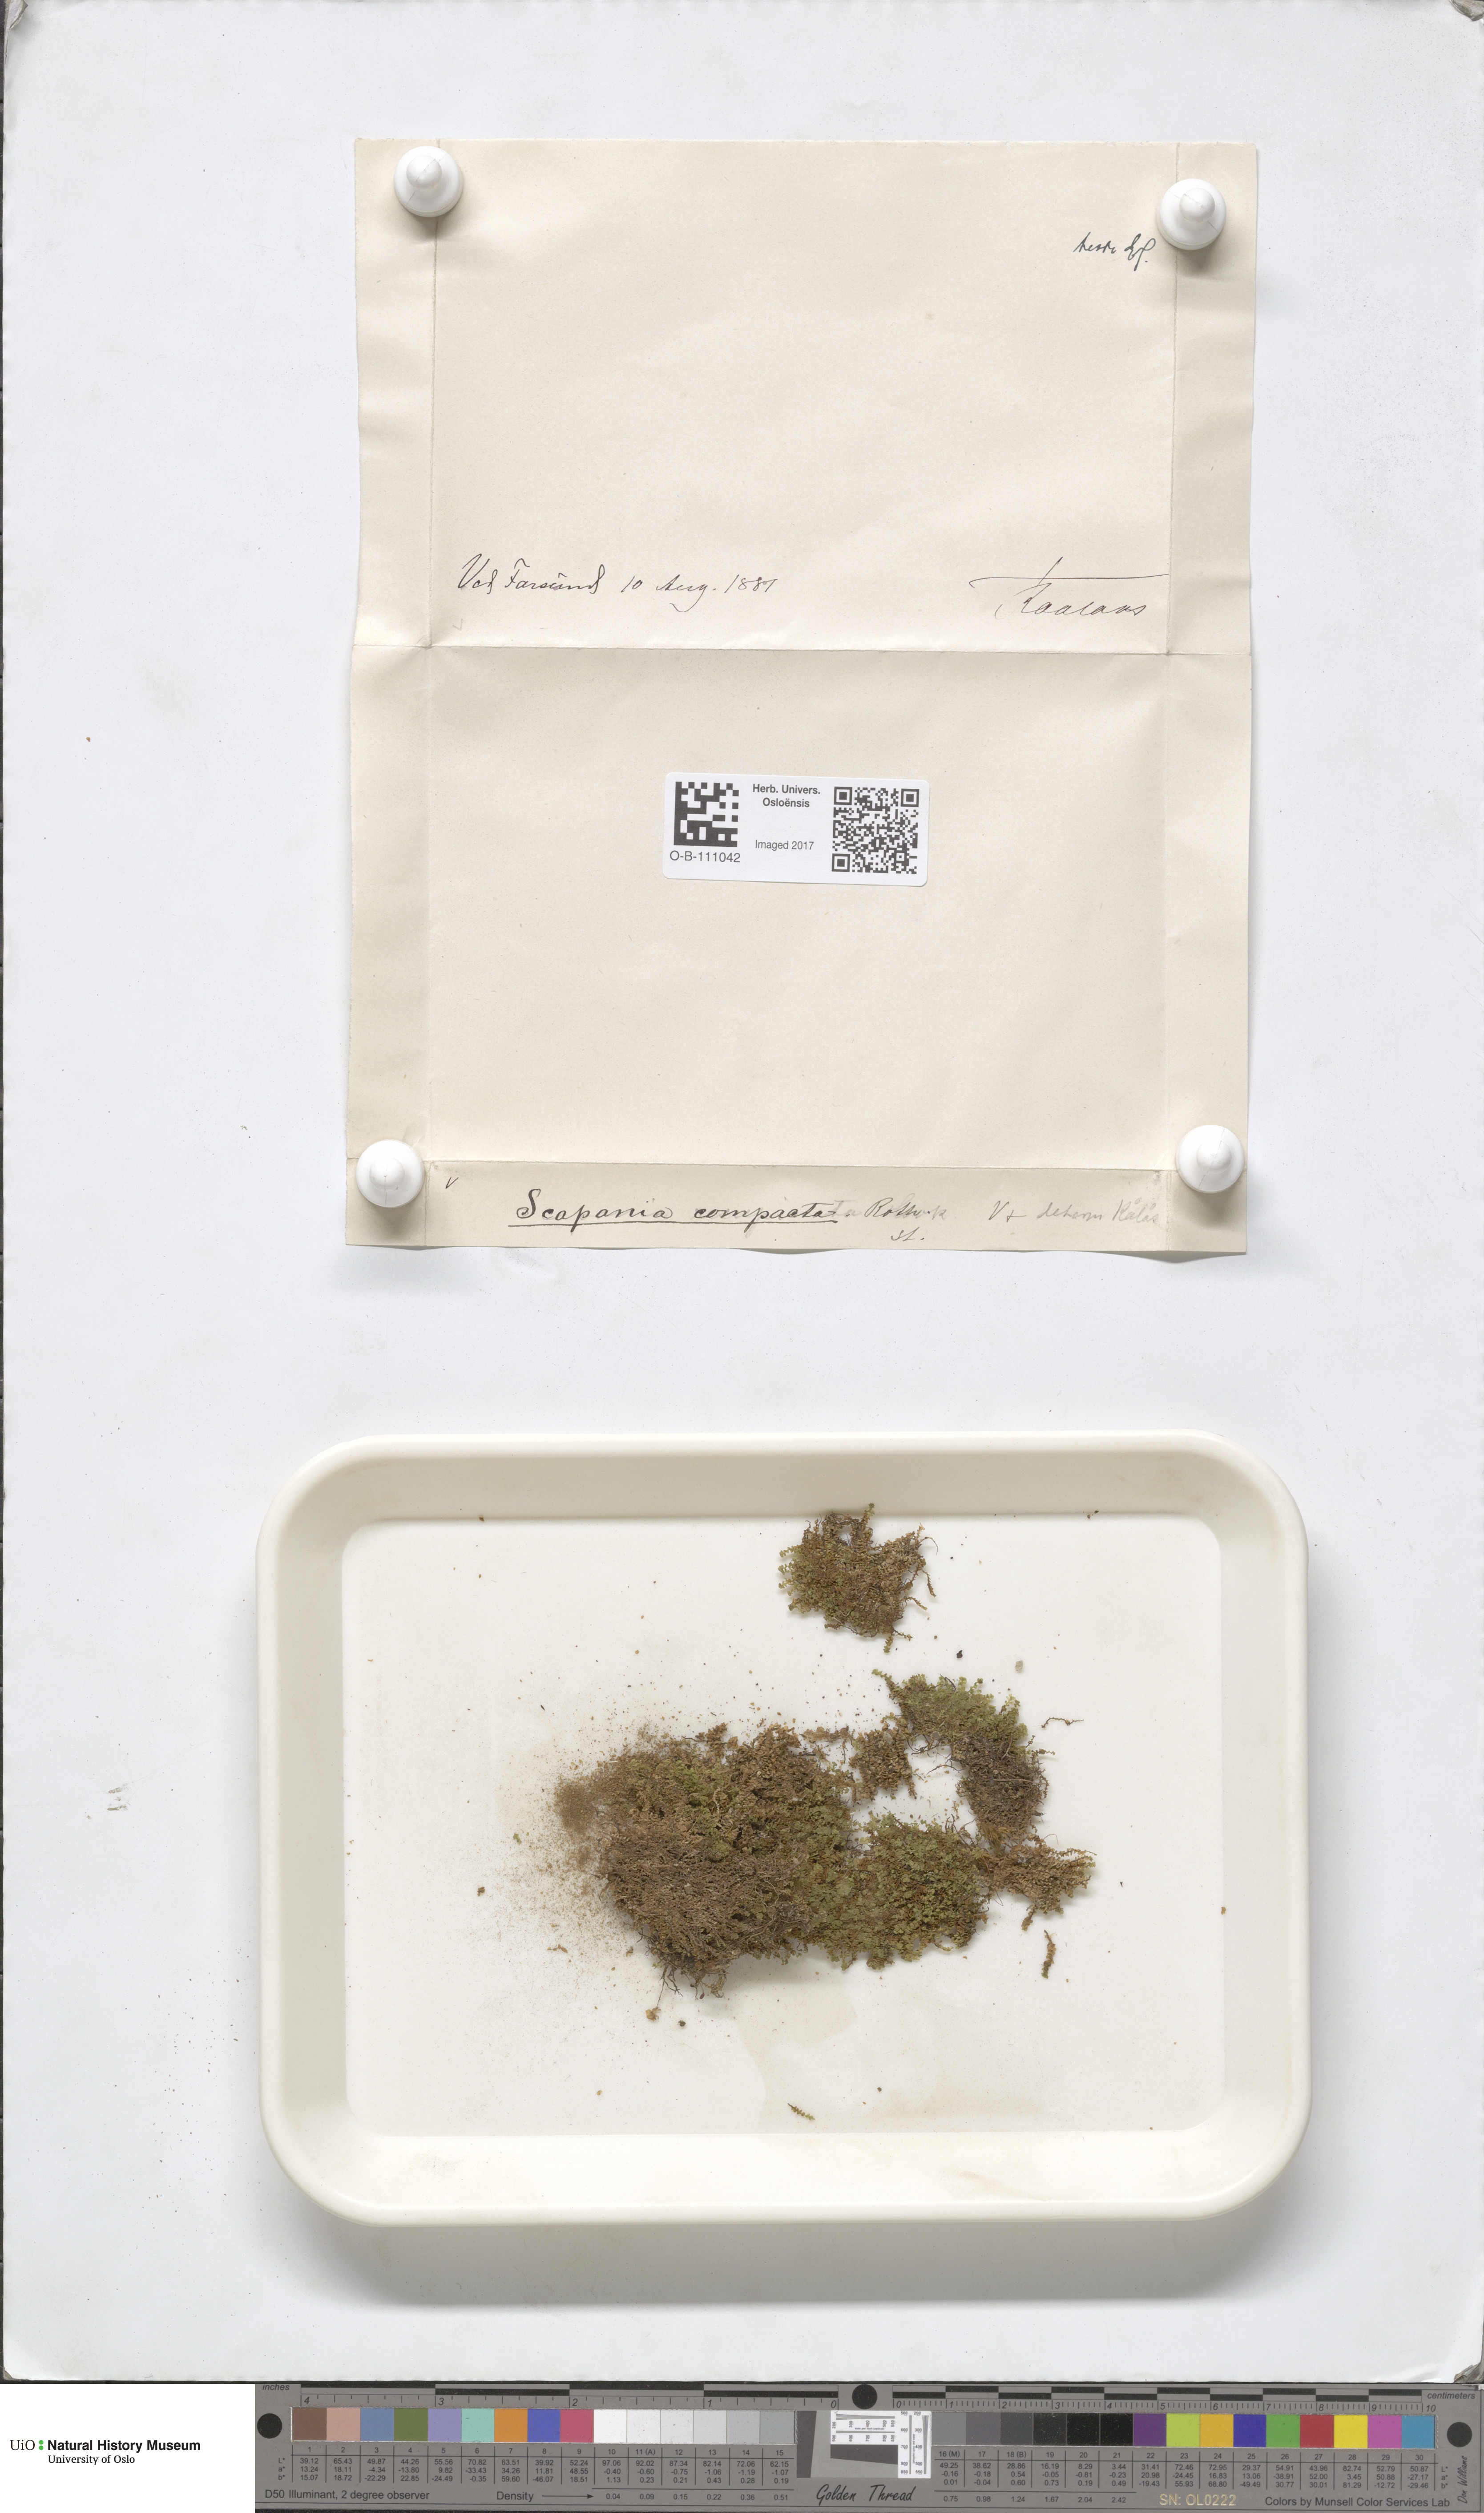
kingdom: Plantae
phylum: Marchantiophyta
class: Jungermanniopsida
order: Jungermanniales
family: Scapaniaceae
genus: Scapania
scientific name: Scapania compacta
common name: Thick-set earwort
